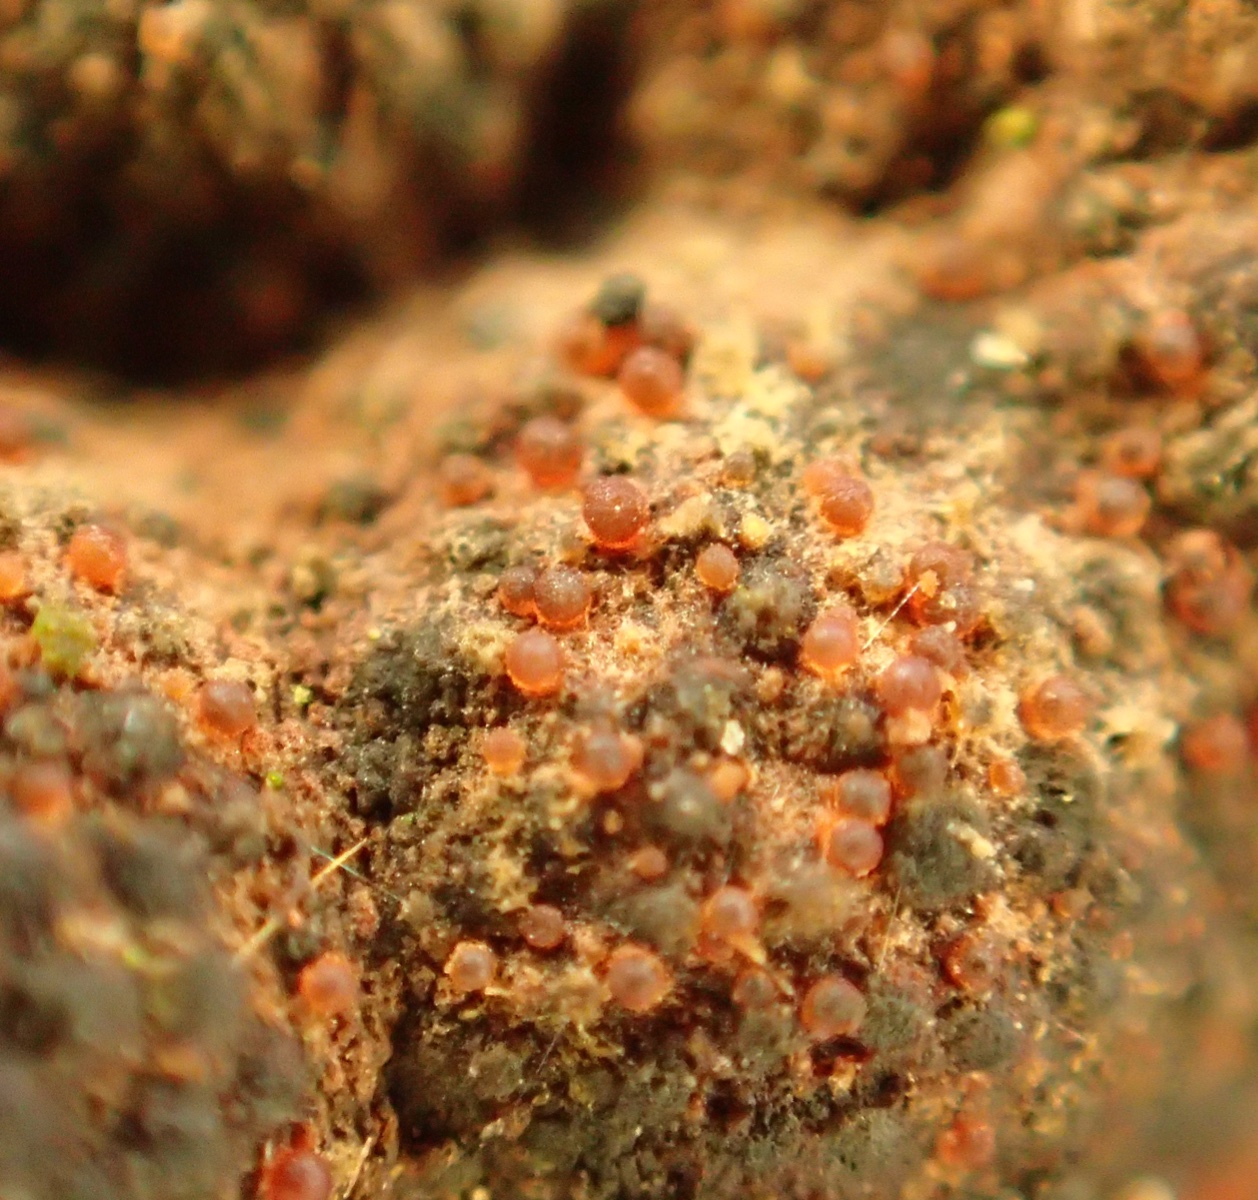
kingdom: Fungi
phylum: Ascomycota
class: Sordariomycetes
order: Hypocreales
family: Nectriaceae
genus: Cosmospora
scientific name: Cosmospora arxii
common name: kuljordbær-cinnobersvamp
